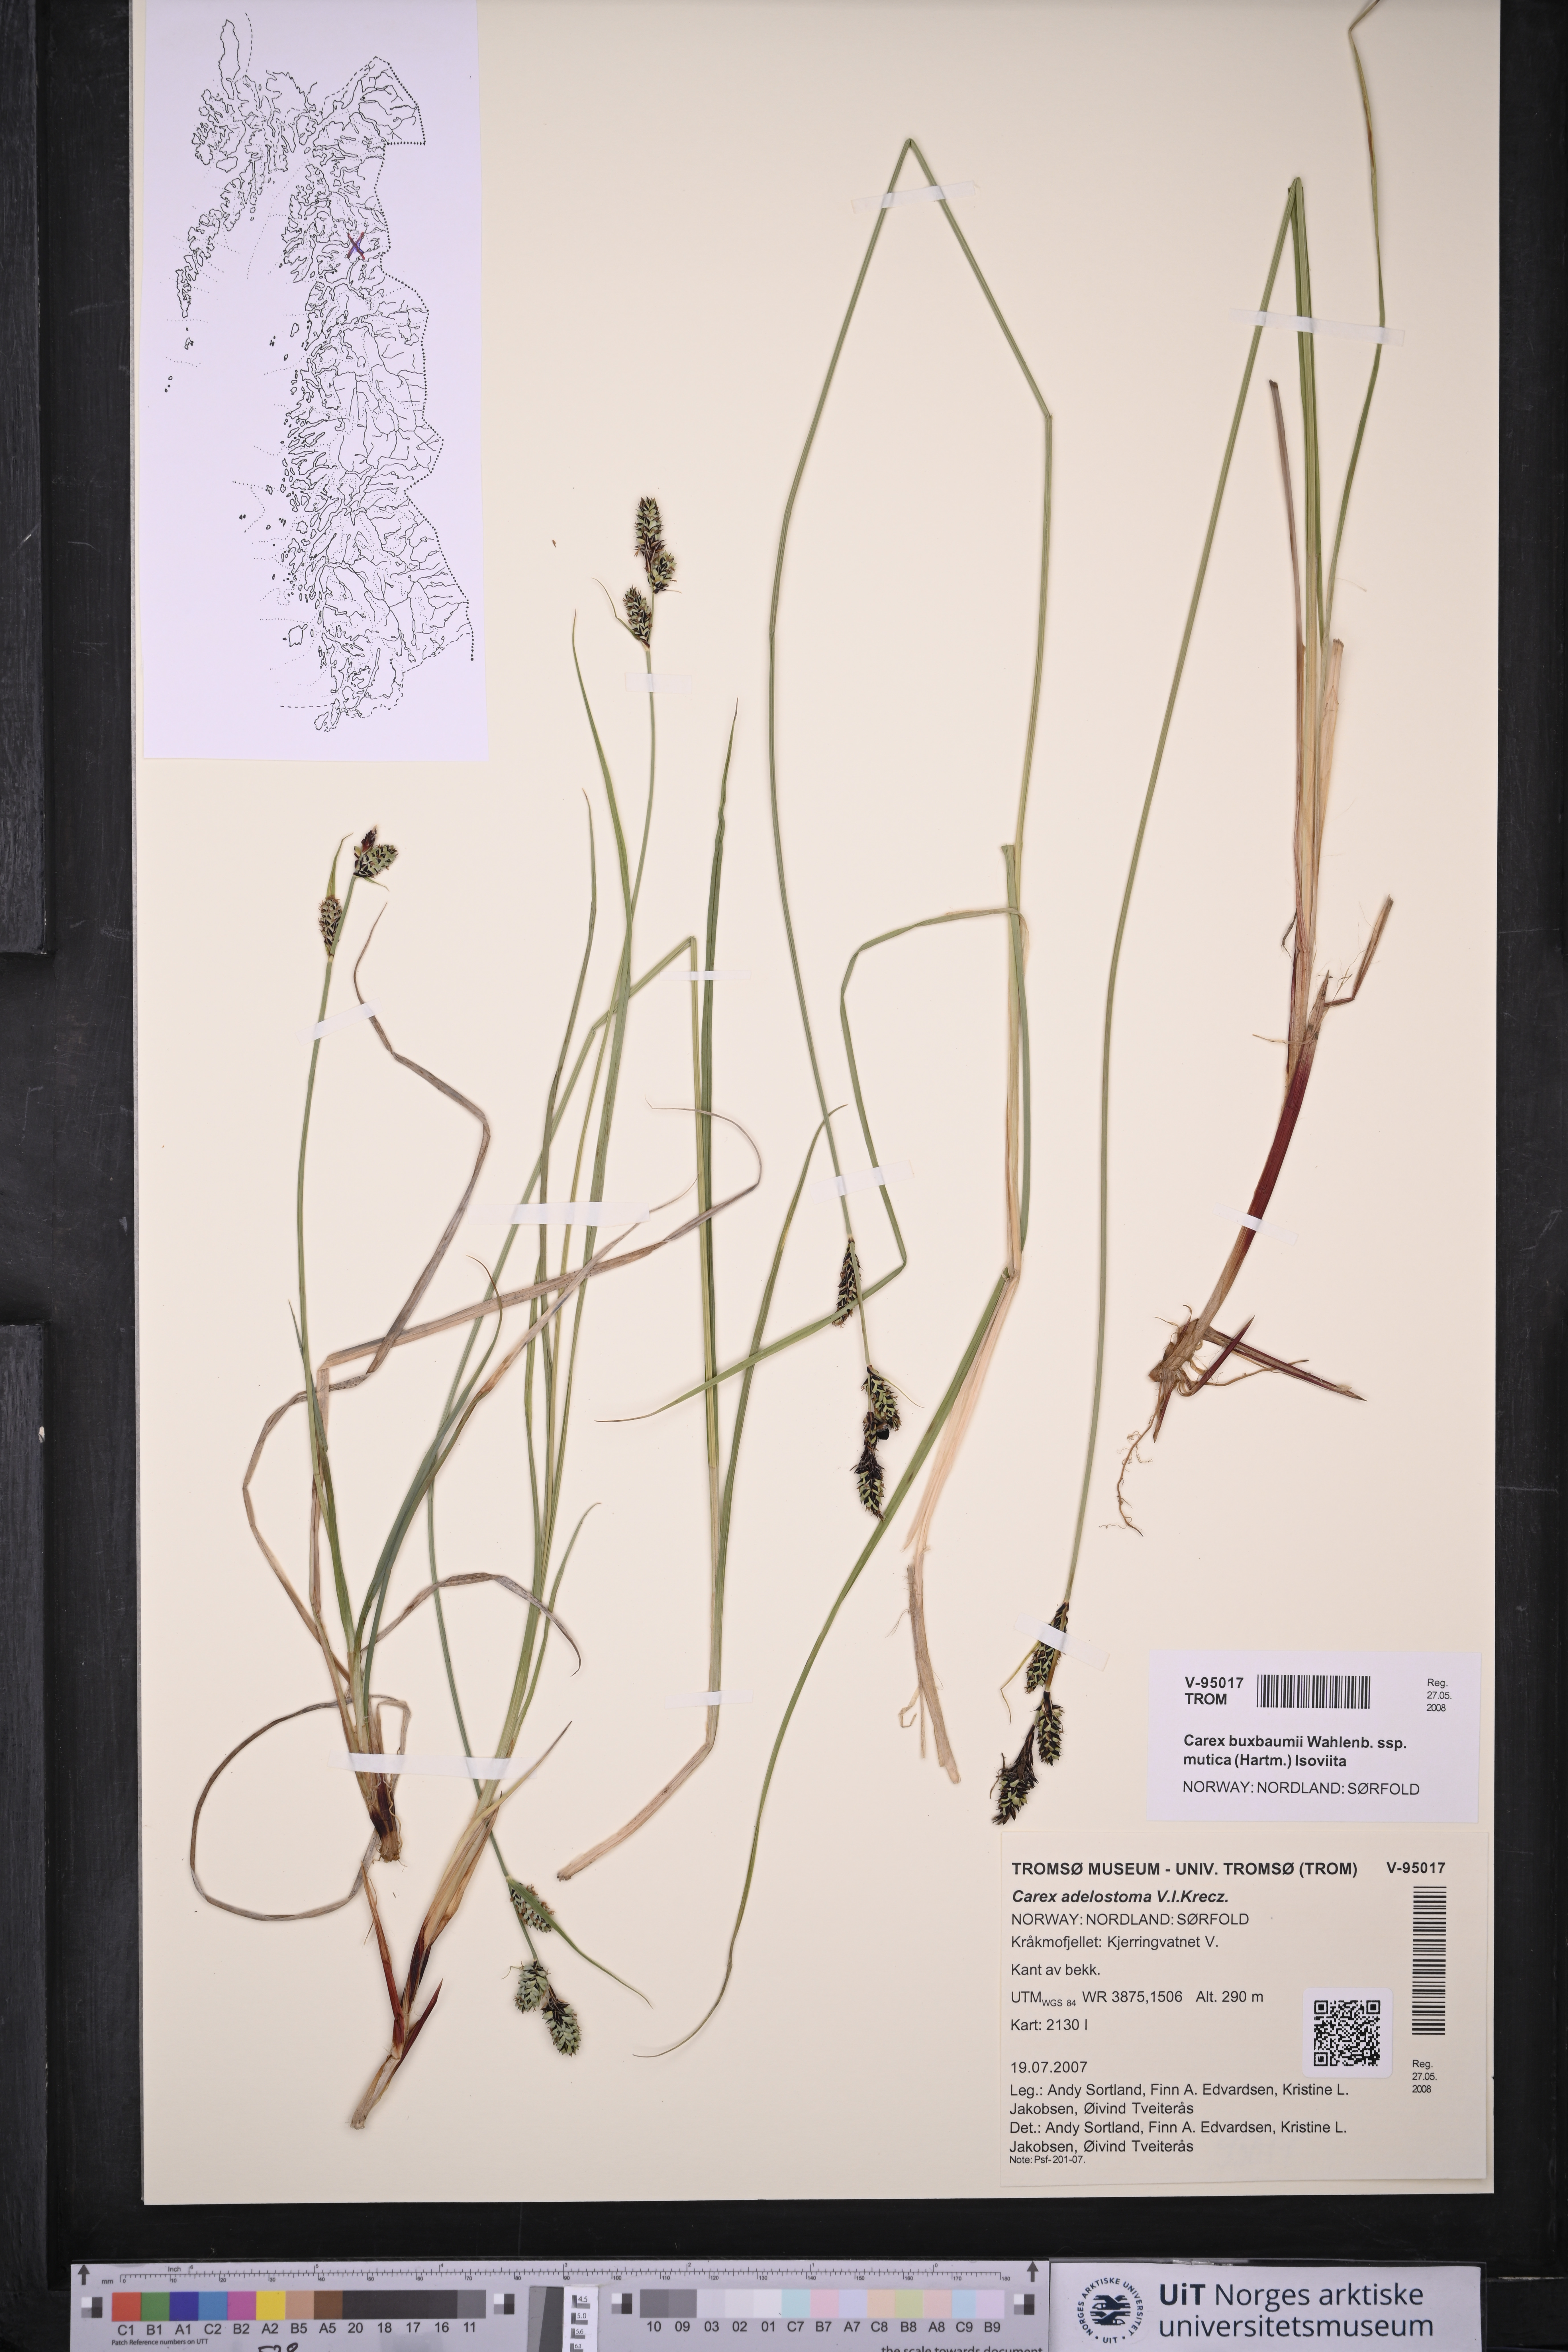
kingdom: Plantae
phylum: Tracheophyta
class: Liliopsida
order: Poales
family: Cyperaceae
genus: Carex
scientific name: Carex adelostoma
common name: Circumpolar sedge
